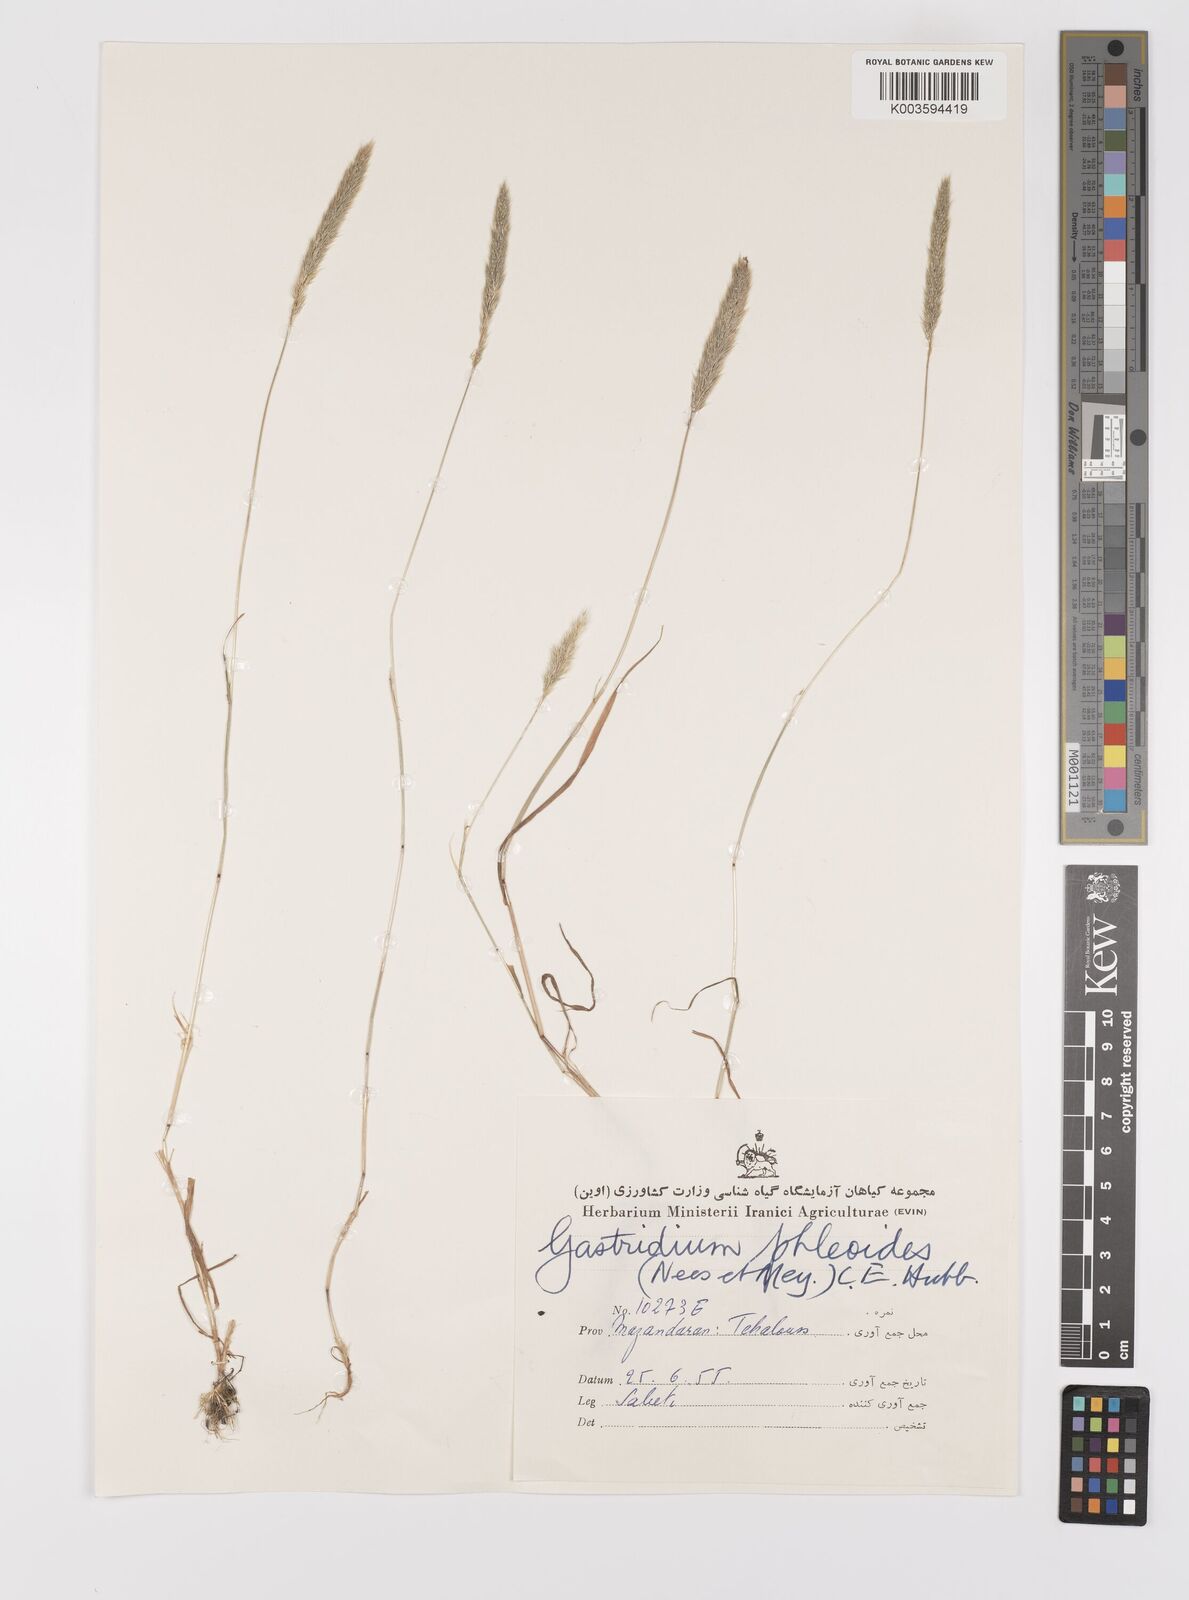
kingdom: Plantae
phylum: Tracheophyta
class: Liliopsida
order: Poales
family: Poaceae
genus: Gastridium
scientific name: Gastridium phleoides
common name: Nit grass
